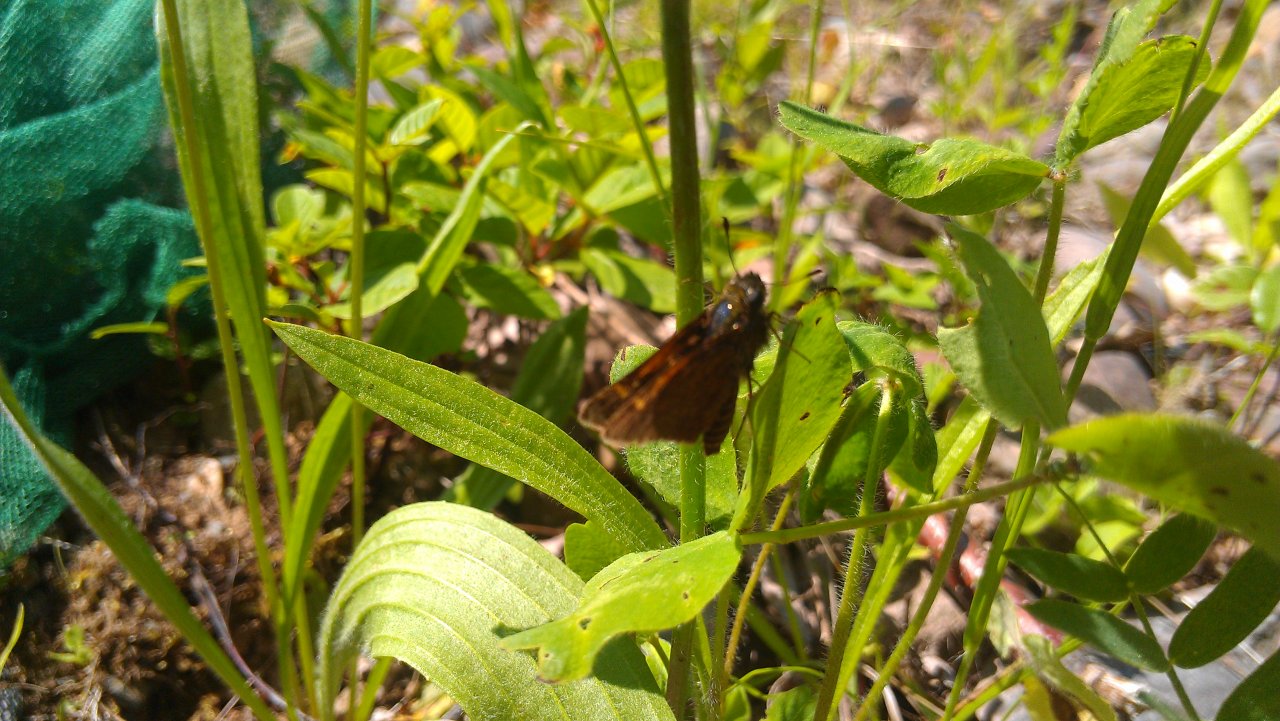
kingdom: Animalia
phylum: Arthropoda
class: Insecta
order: Lepidoptera
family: Hesperiidae
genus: Polites
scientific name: Polites themistocles
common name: Tawny-edged Skipper
